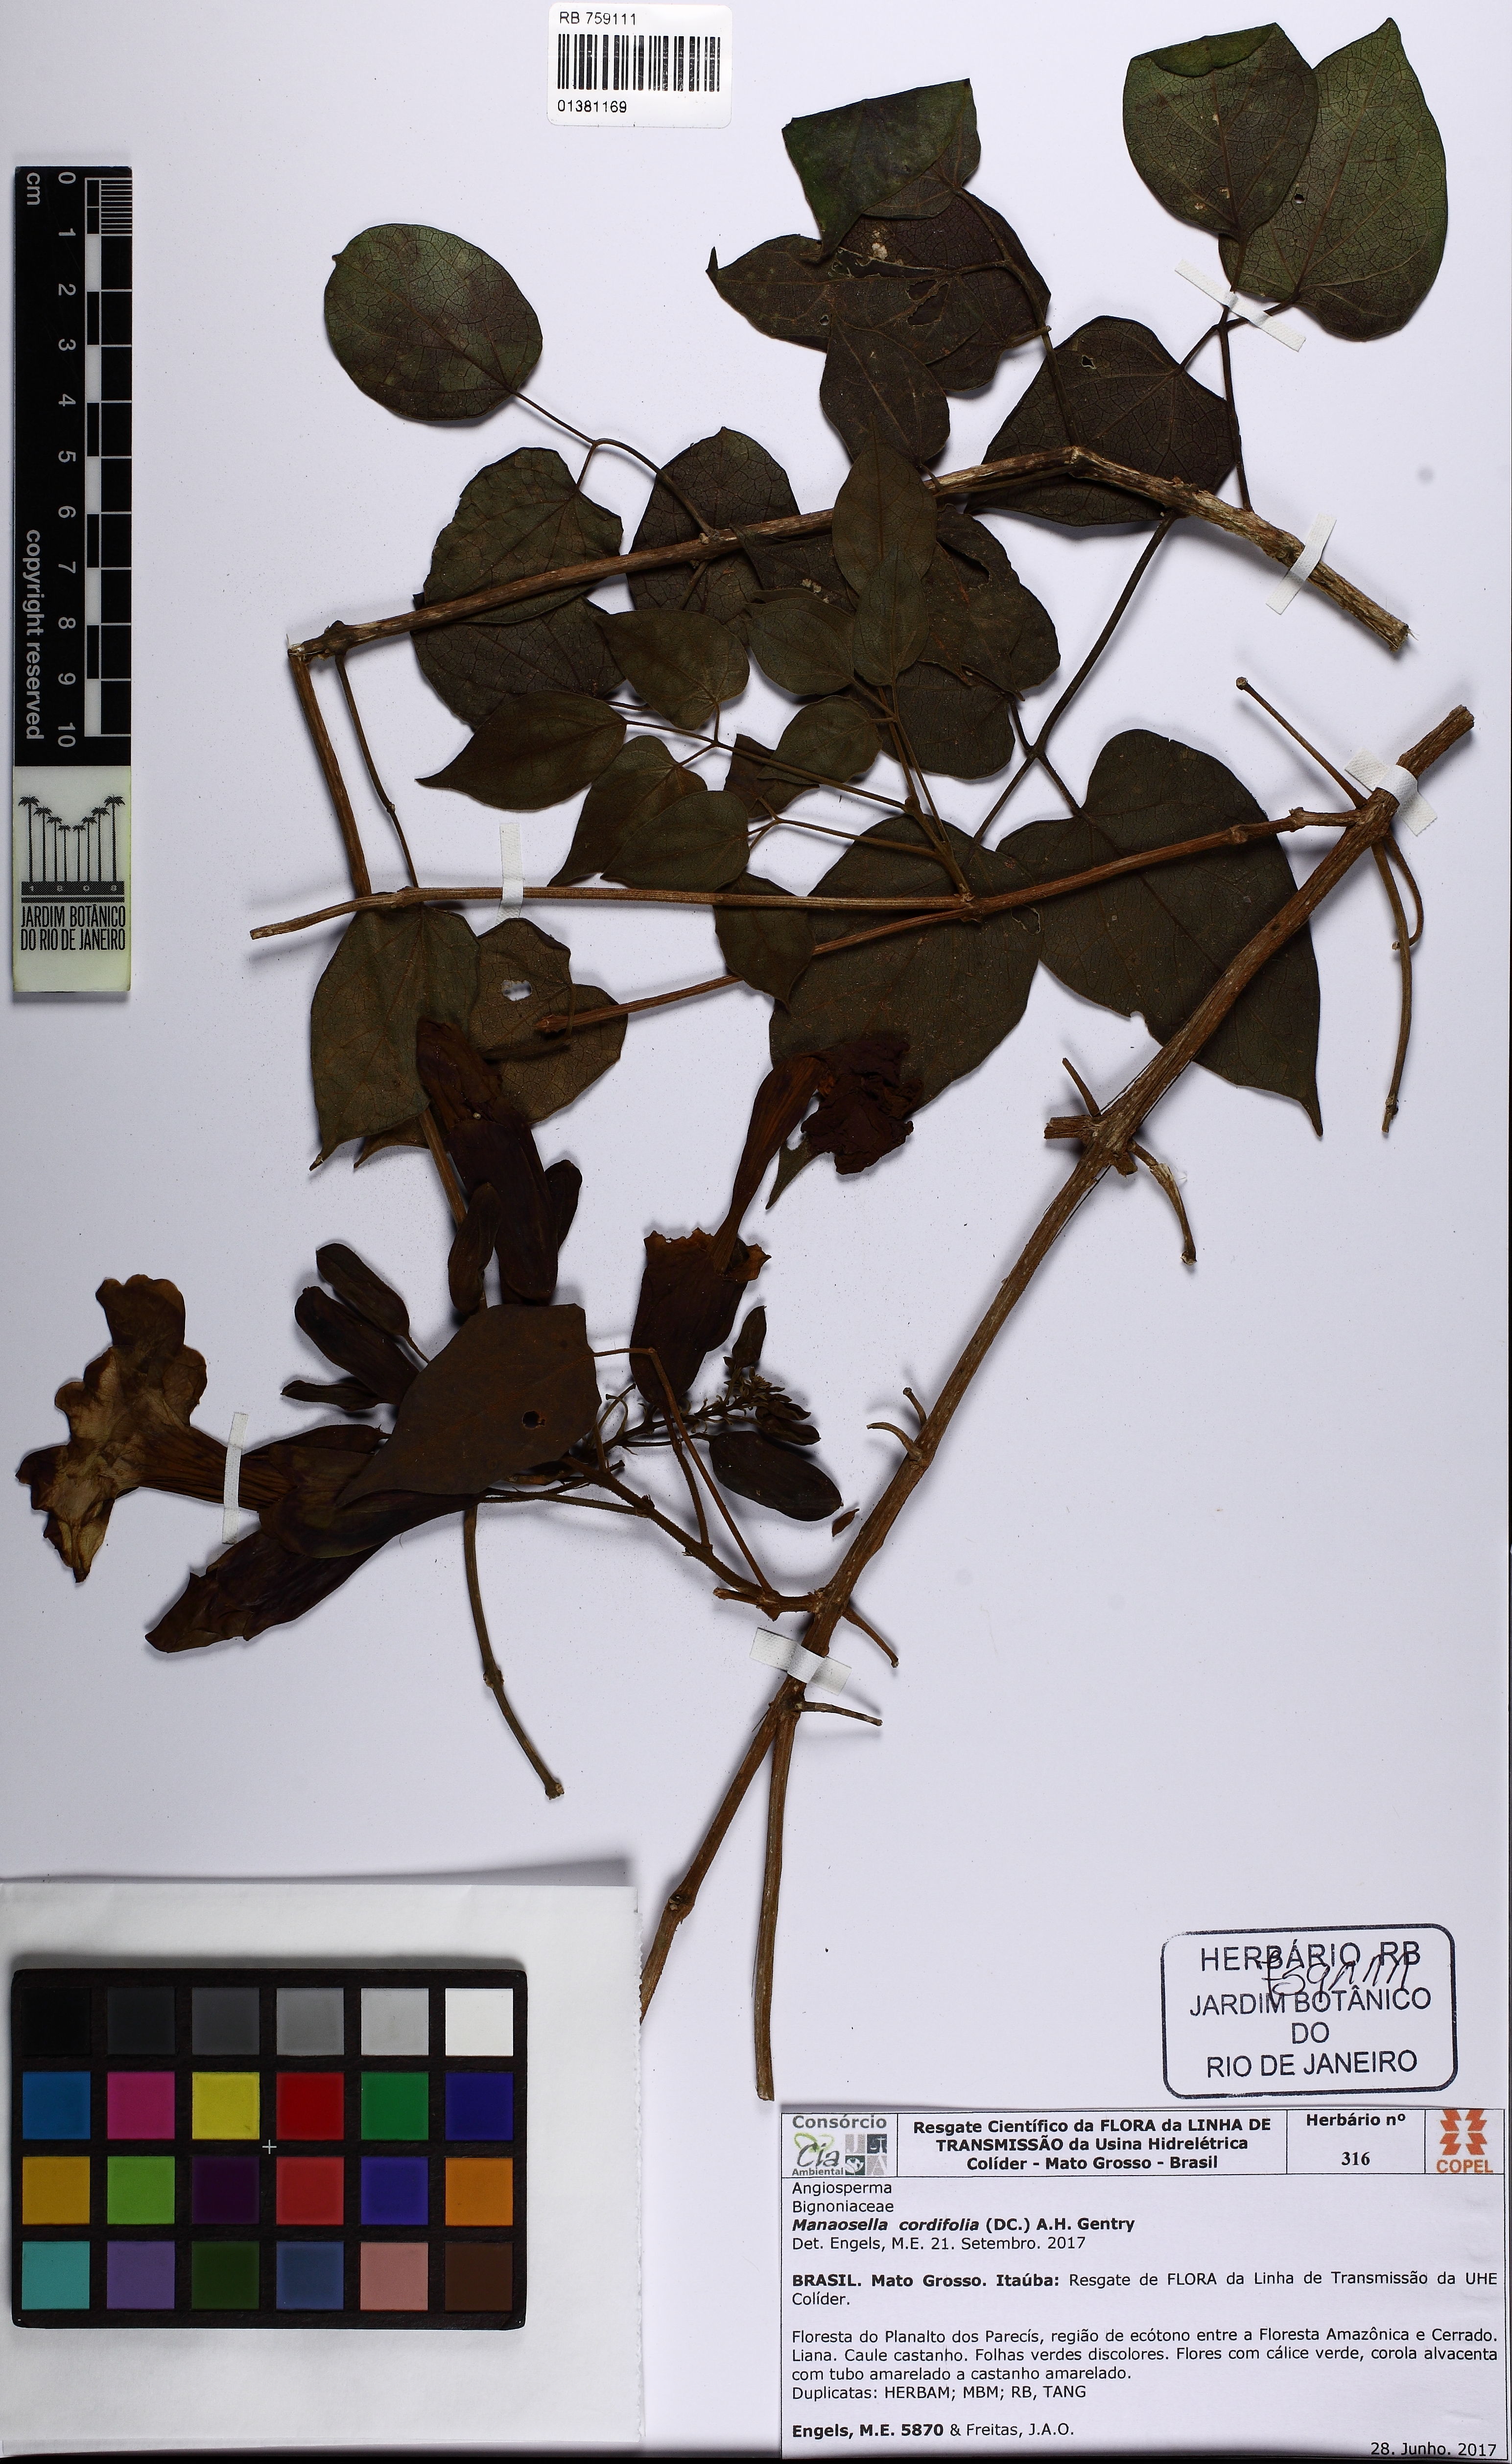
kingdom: Plantae
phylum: Tracheophyta
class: Magnoliopsida
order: Lamiales
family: Bignoniaceae
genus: Manaosella
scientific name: Manaosella cordifolia
